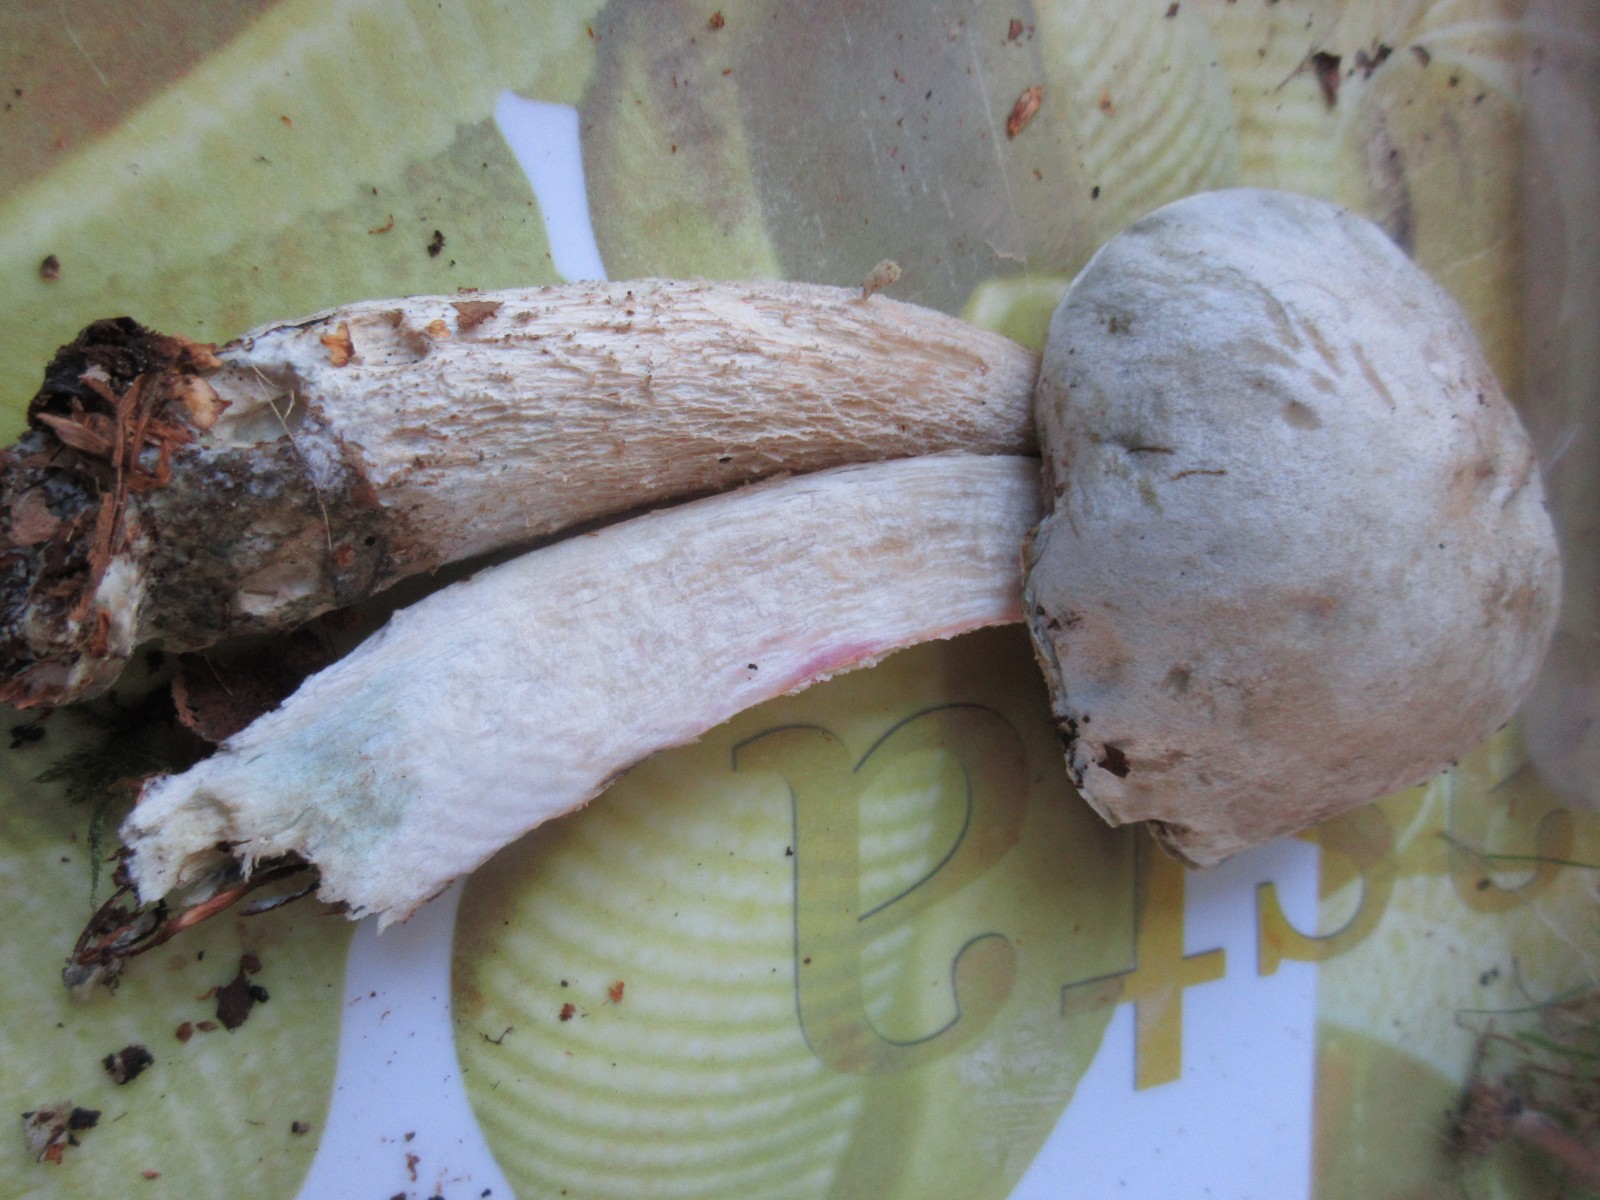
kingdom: Fungi
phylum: Basidiomycota
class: Agaricomycetes
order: Boletales
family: Boletaceae
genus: Leccinum
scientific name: Leccinum scabrum
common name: hvid skælrørhat
